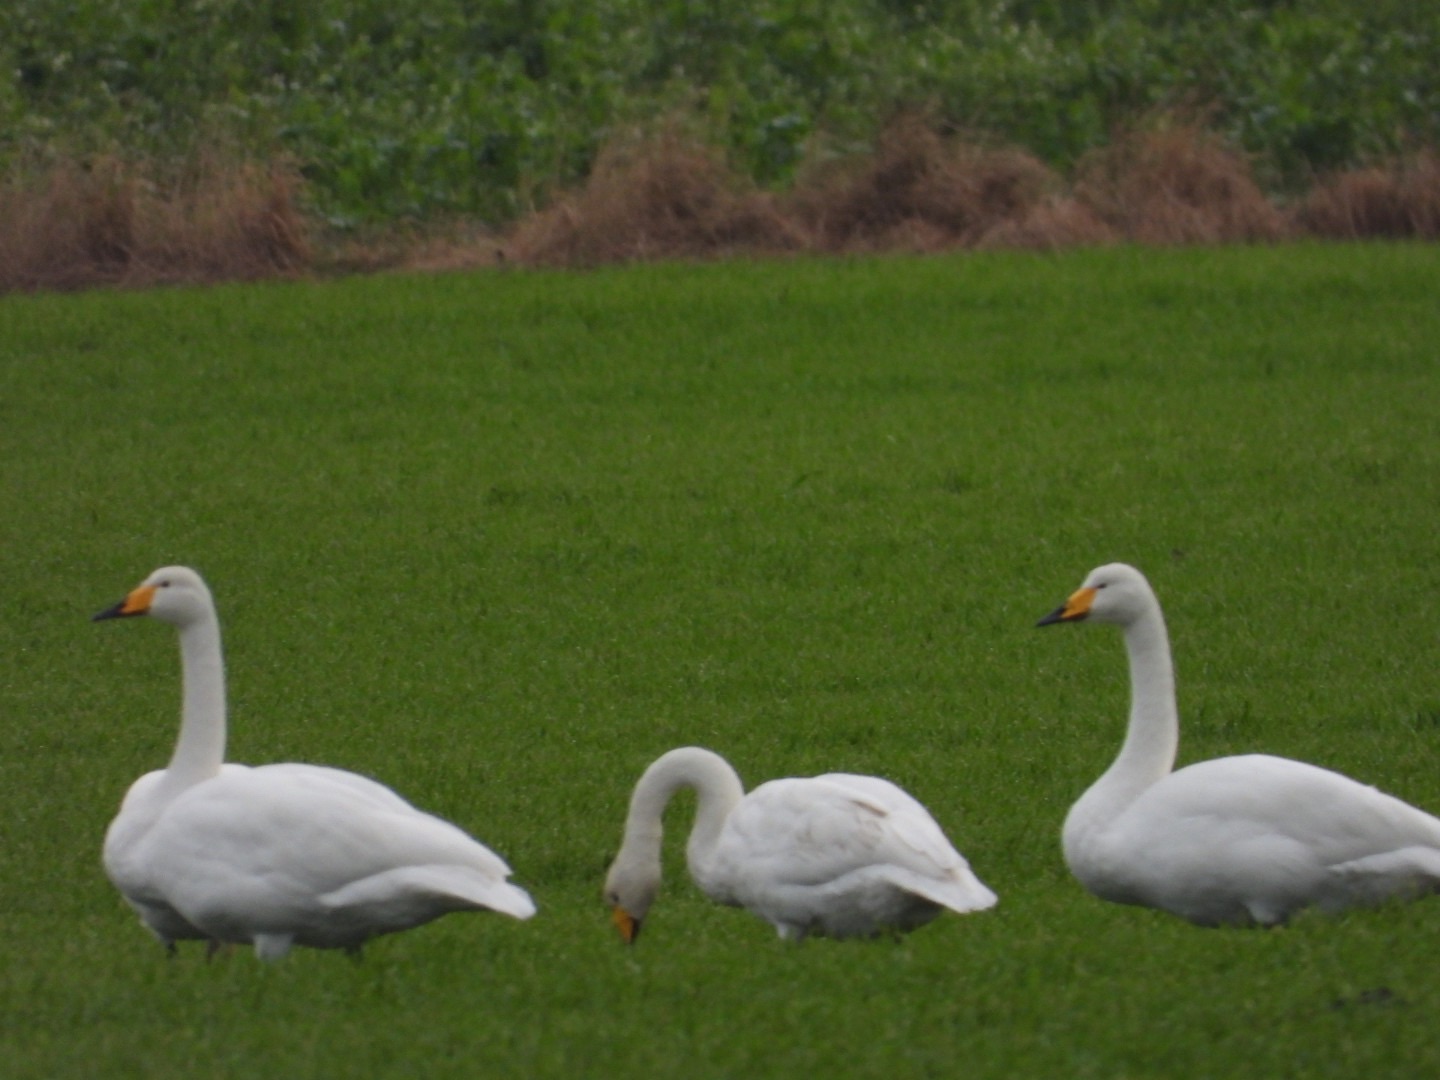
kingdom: Animalia
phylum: Chordata
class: Aves
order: Anseriformes
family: Anatidae
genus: Cygnus
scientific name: Cygnus cygnus
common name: Sangsvane
